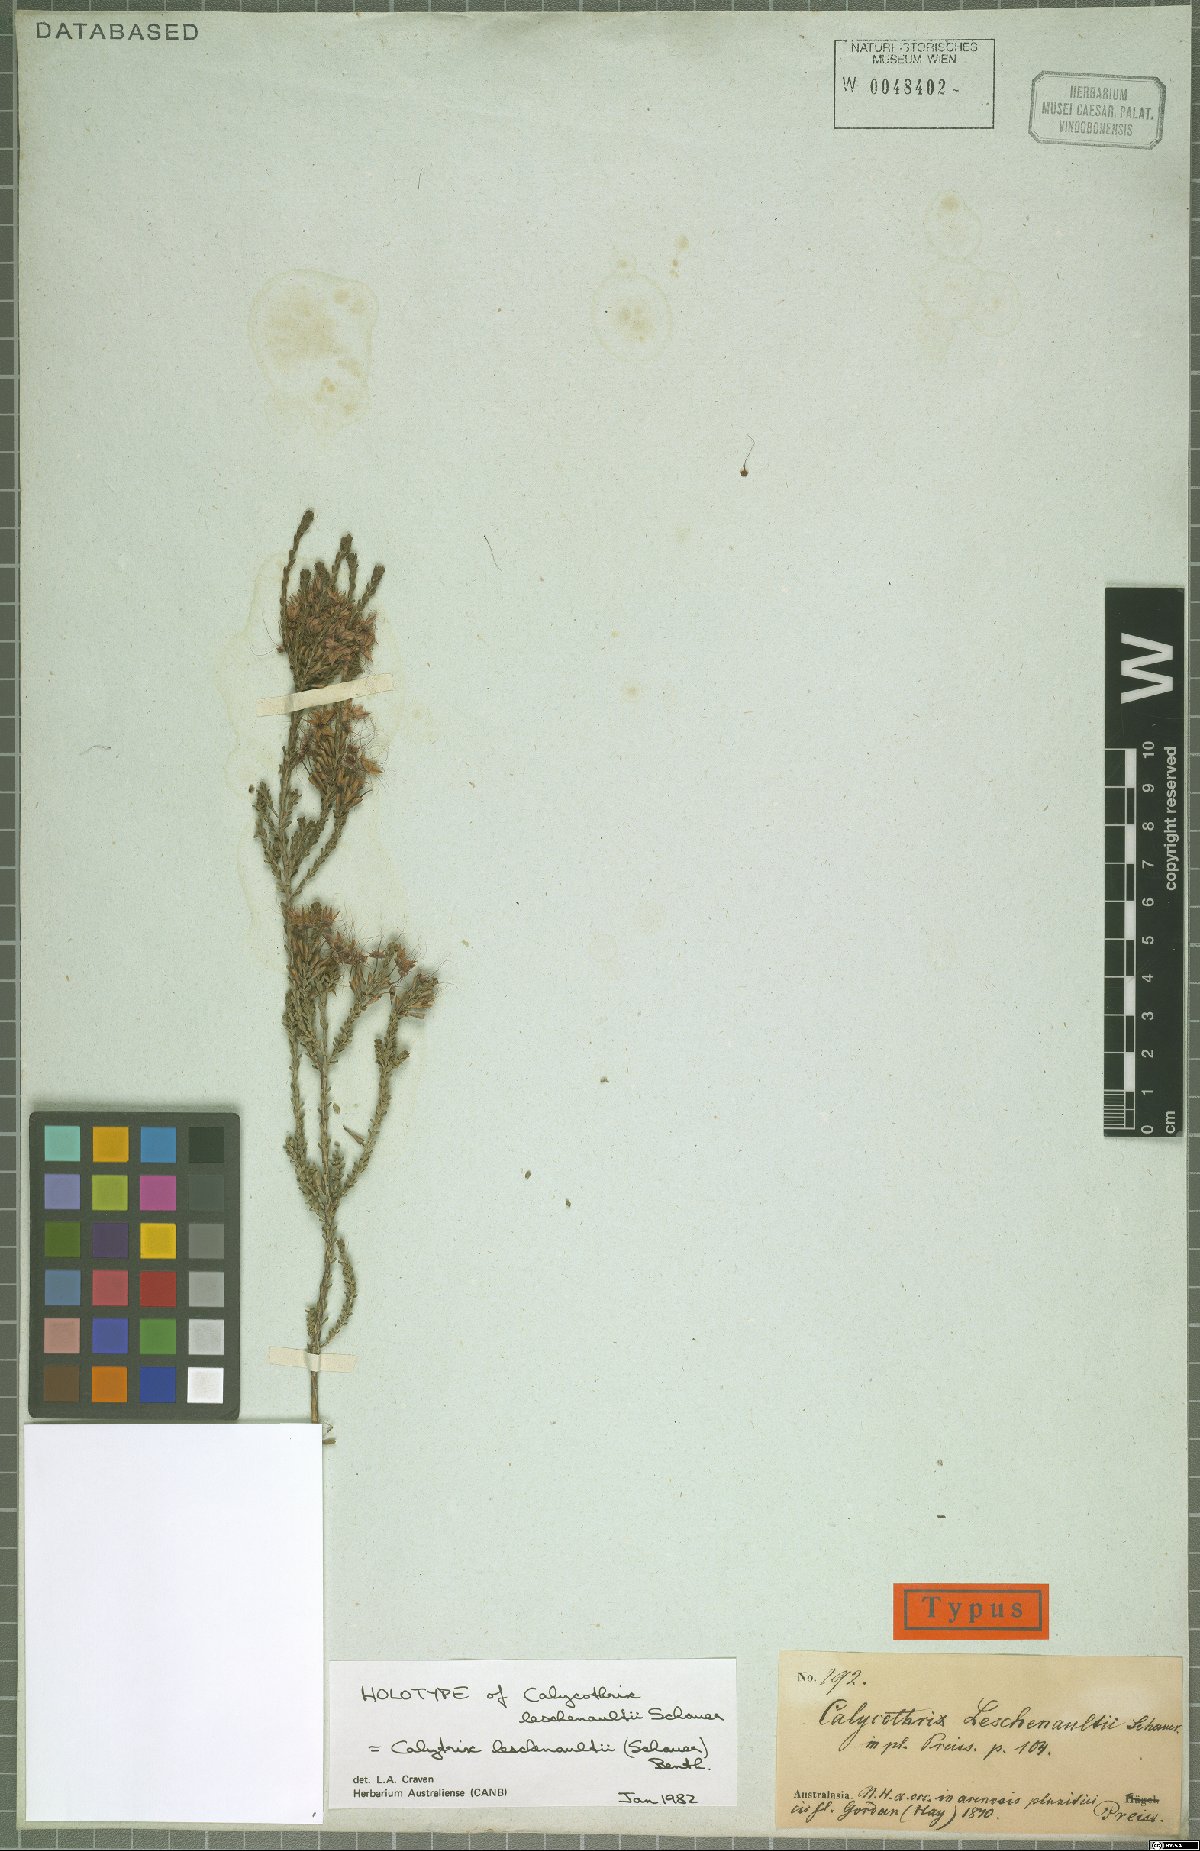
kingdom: Plantae
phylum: Tracheophyta
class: Magnoliopsida
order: Myrtales
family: Myrtaceae
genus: Calytrix
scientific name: Calytrix leschenaultii
